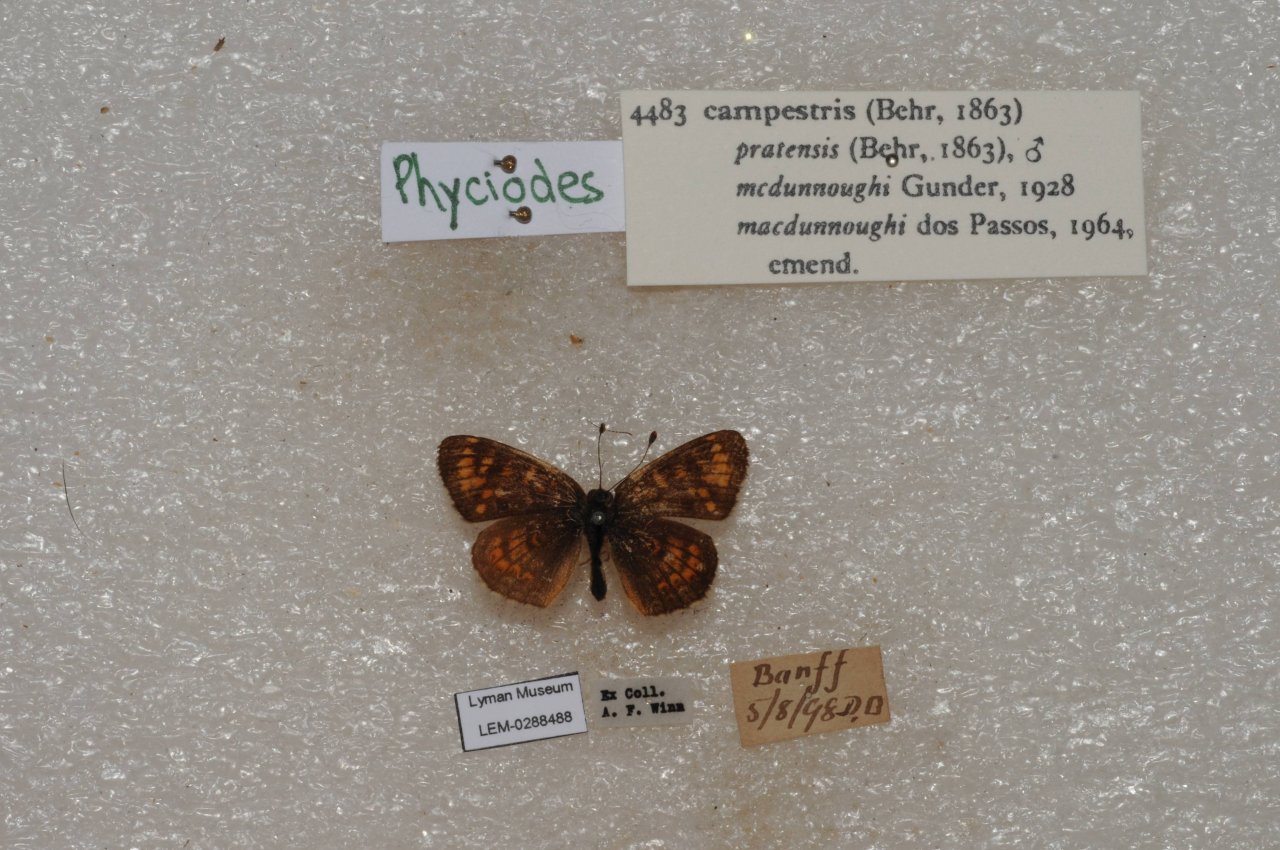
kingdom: Animalia
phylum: Arthropoda
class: Insecta
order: Lepidoptera
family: Nymphalidae
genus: Phyciodes
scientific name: Phyciodes tharos
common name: Field Crescent
